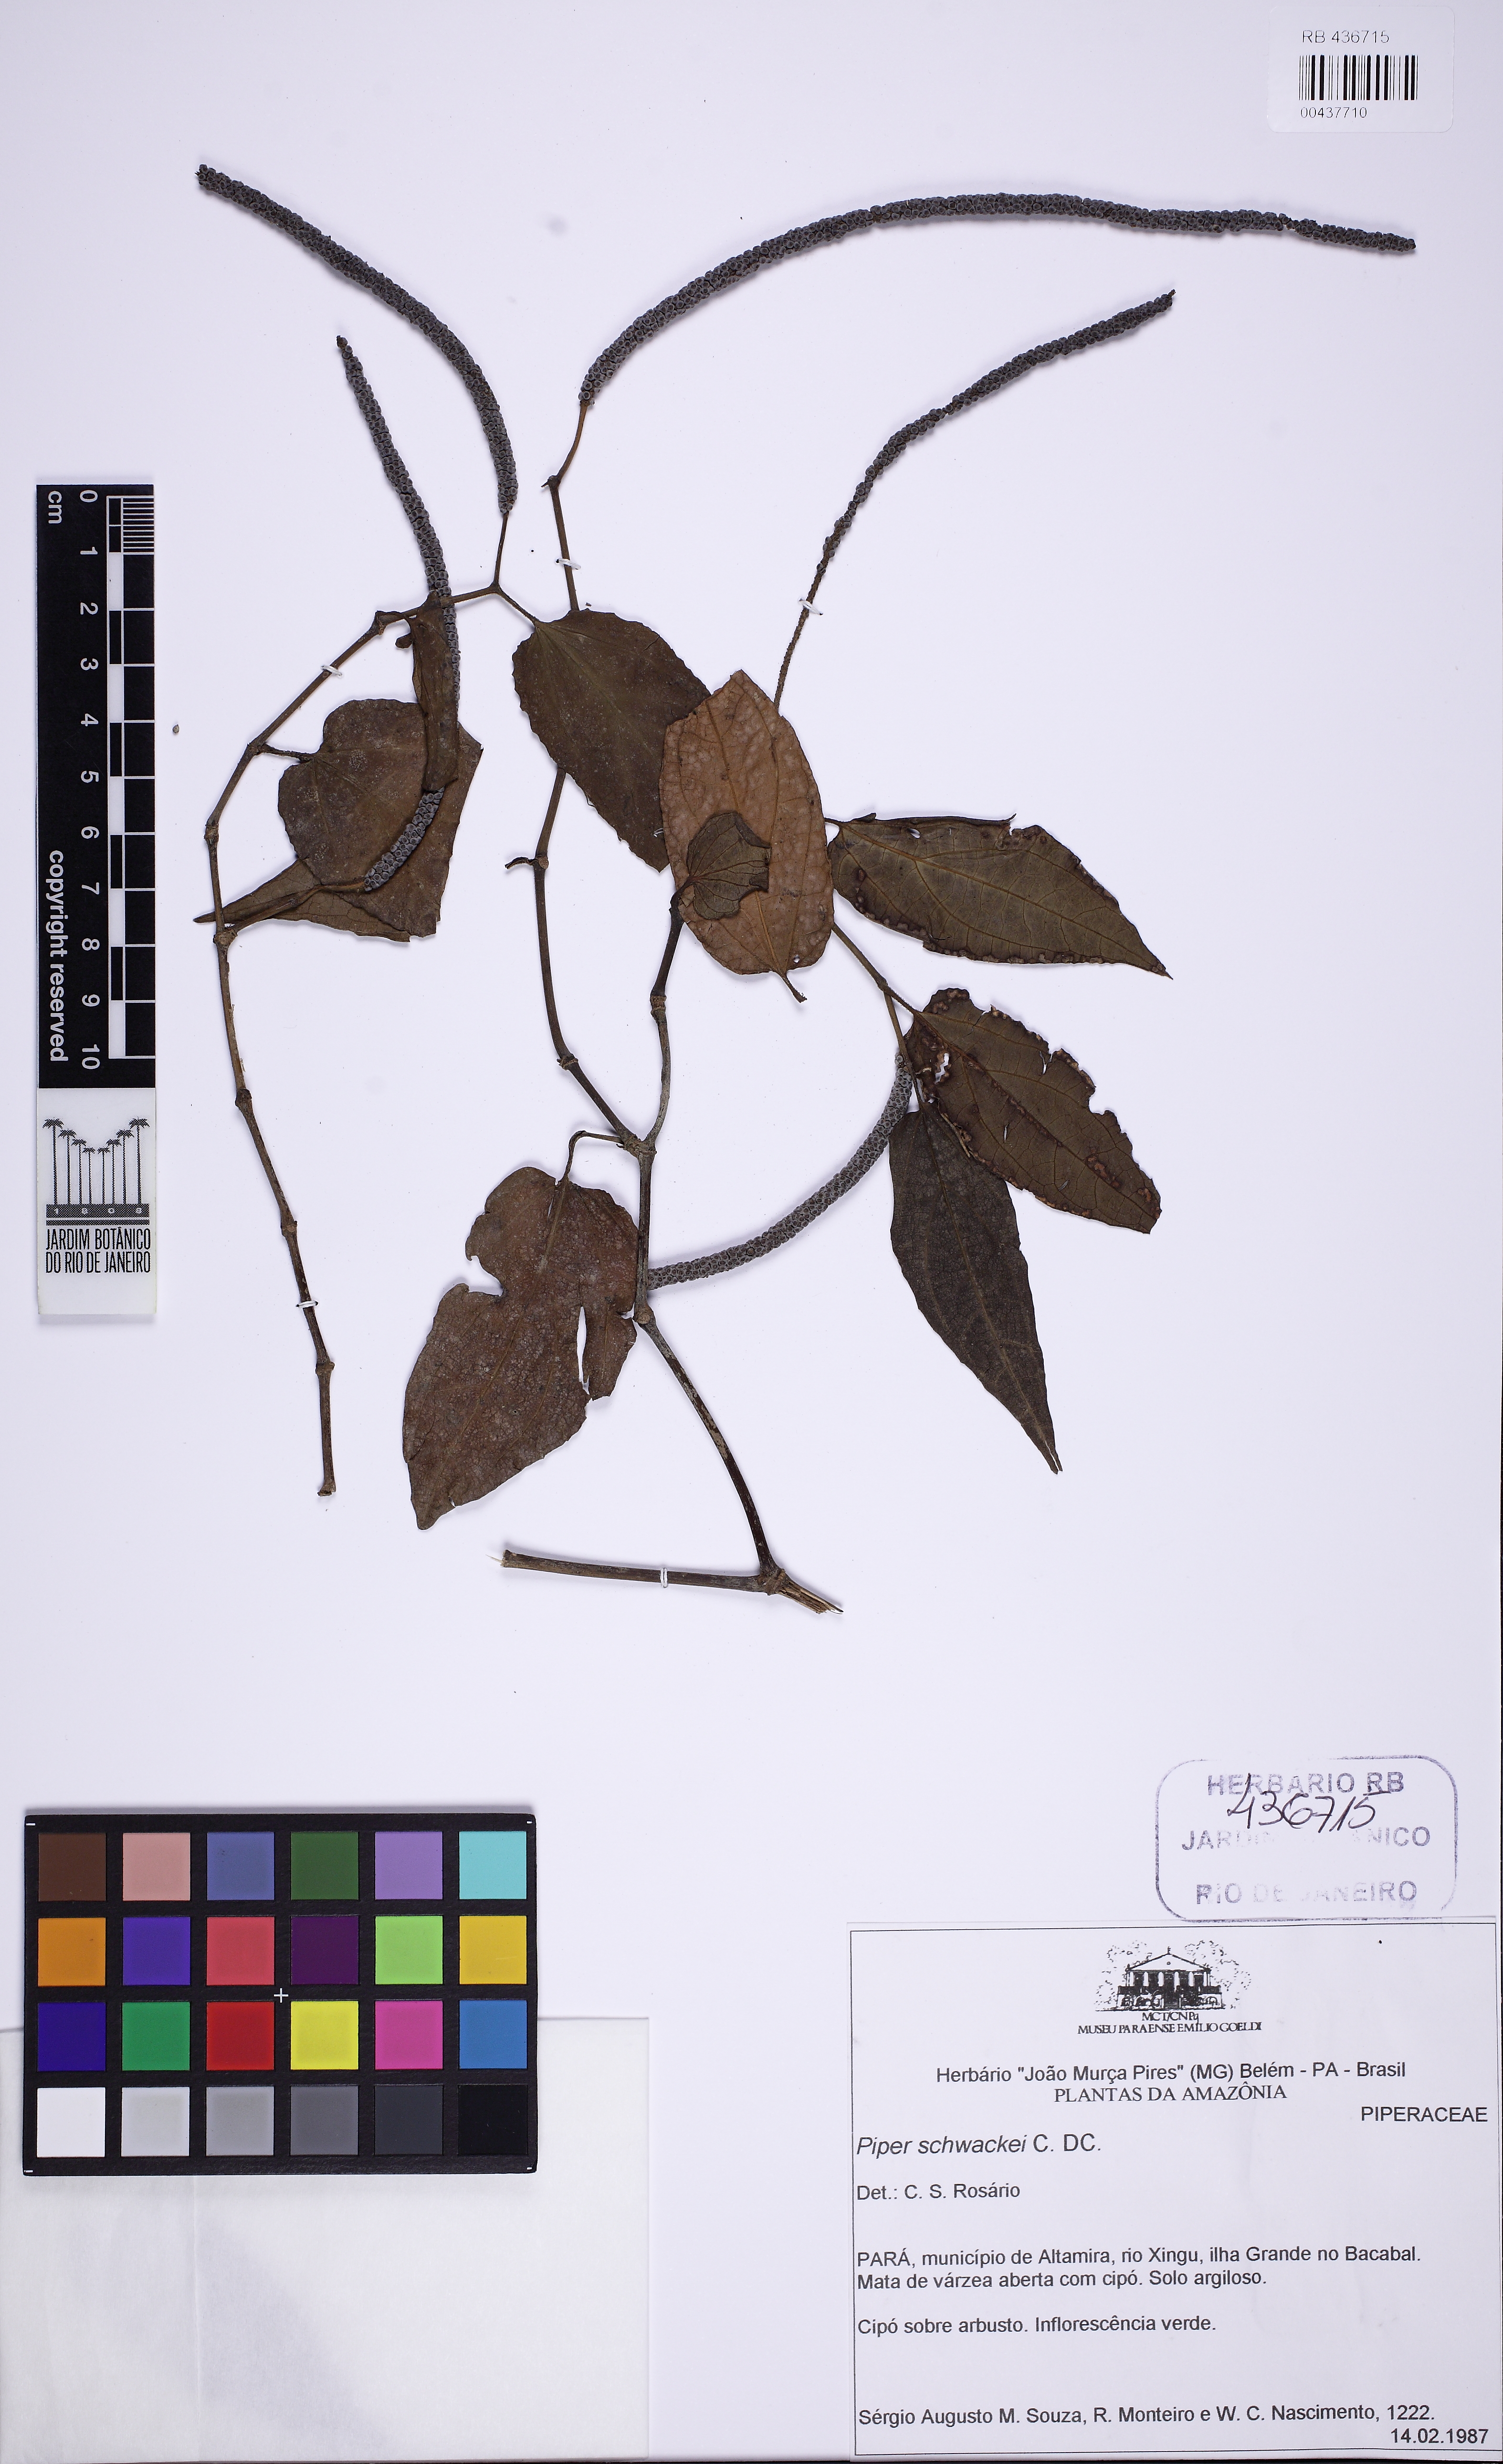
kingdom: Plantae
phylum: Tracheophyta
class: Magnoliopsida
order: Piperales
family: Piperaceae
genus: Piper
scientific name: Piper schwackei
